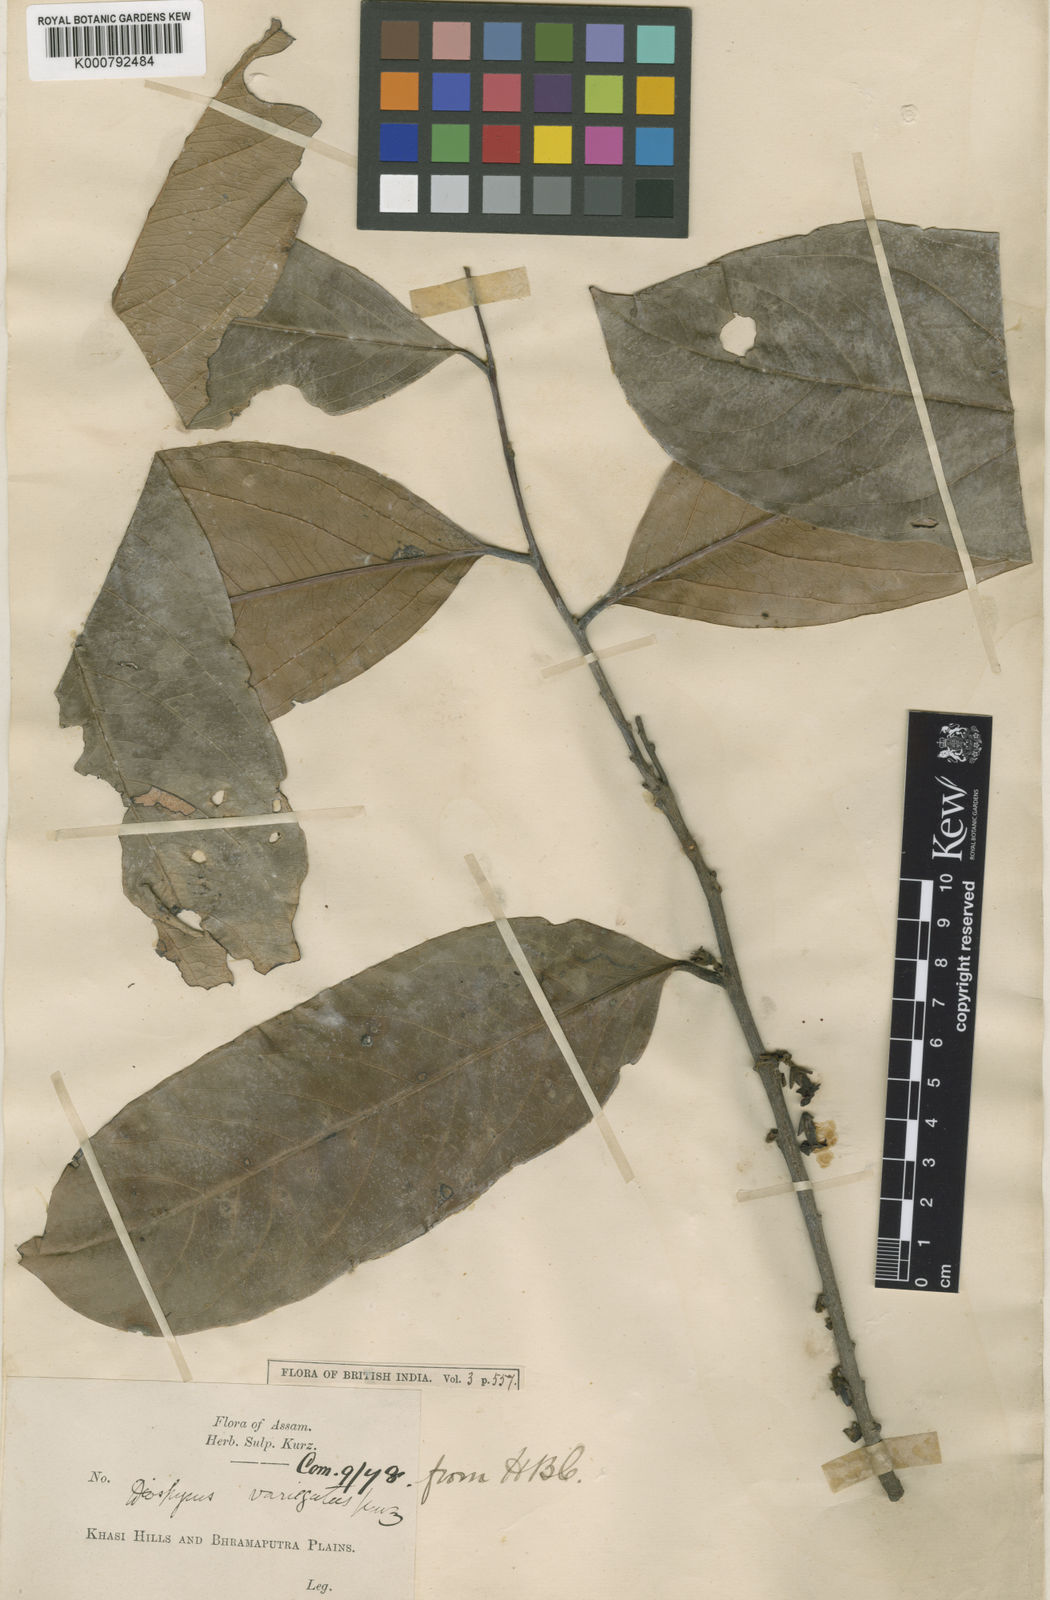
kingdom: Plantae
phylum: Tracheophyta
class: Magnoliopsida
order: Ericales
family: Ebenaceae
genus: Diospyros
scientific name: Diospyros variegata
